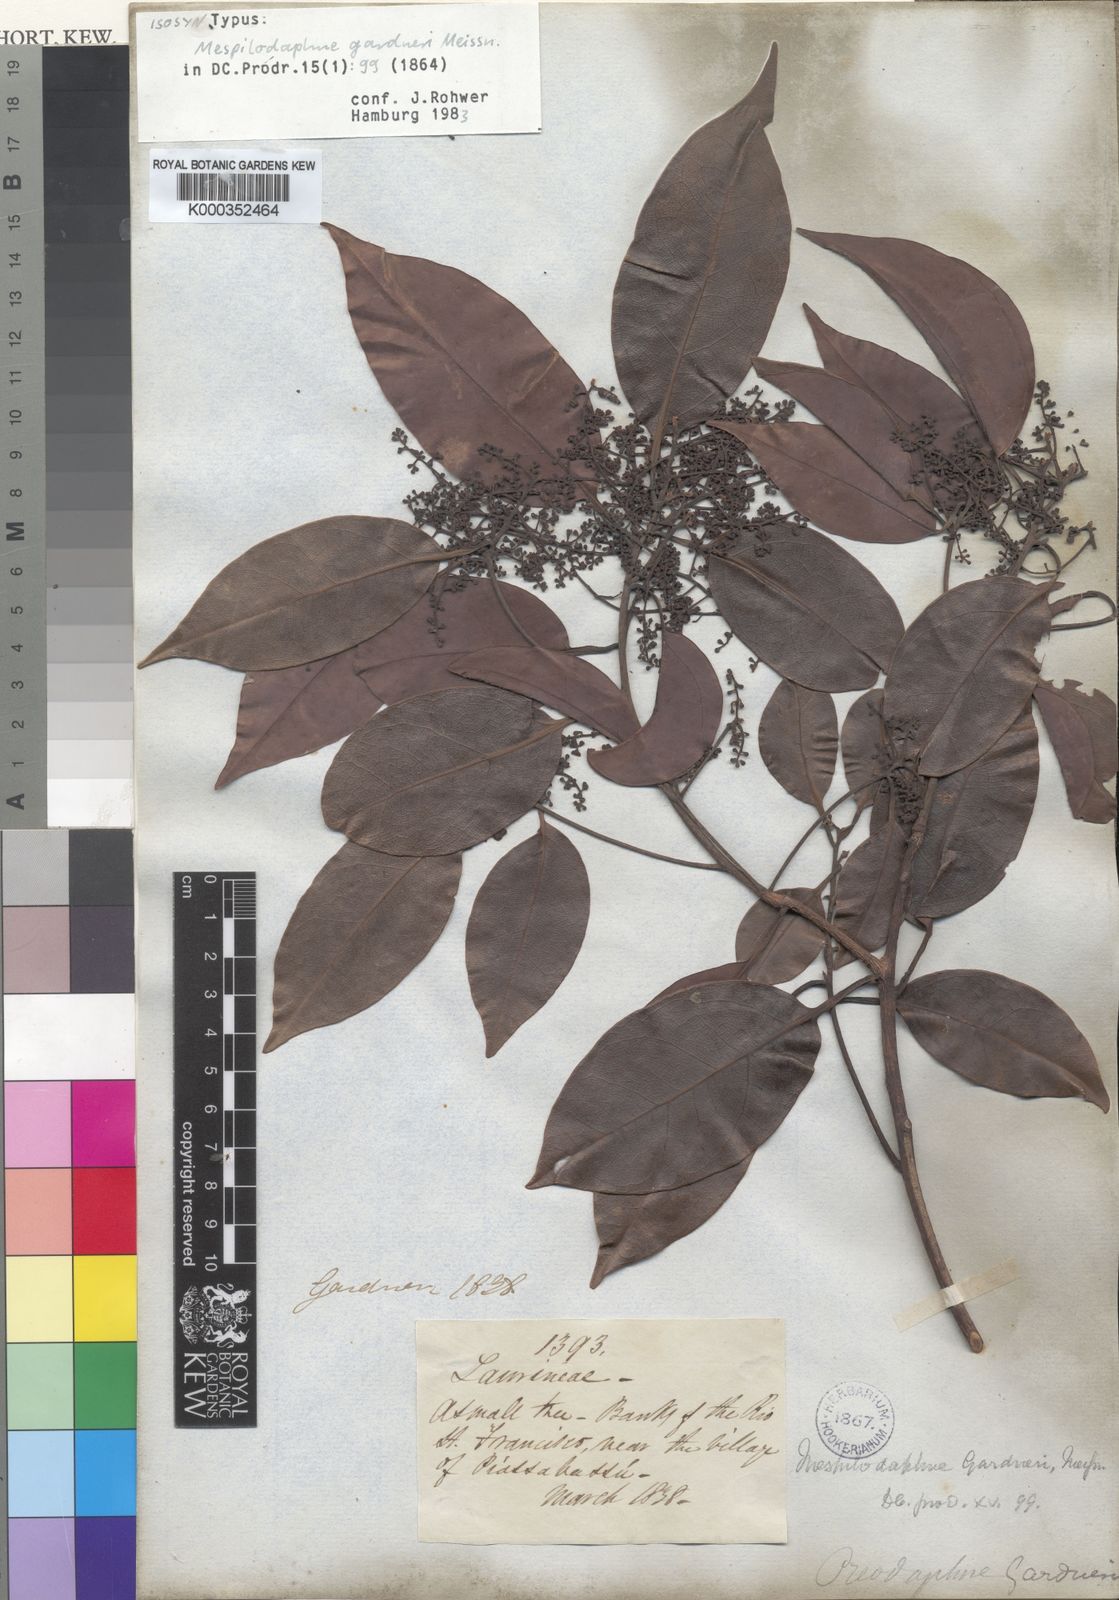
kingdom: Plantae
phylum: Tracheophyta
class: Magnoliopsida
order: Laurales
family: Lauraceae
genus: Mespilodaphne
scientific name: Mespilodaphne gardneri
